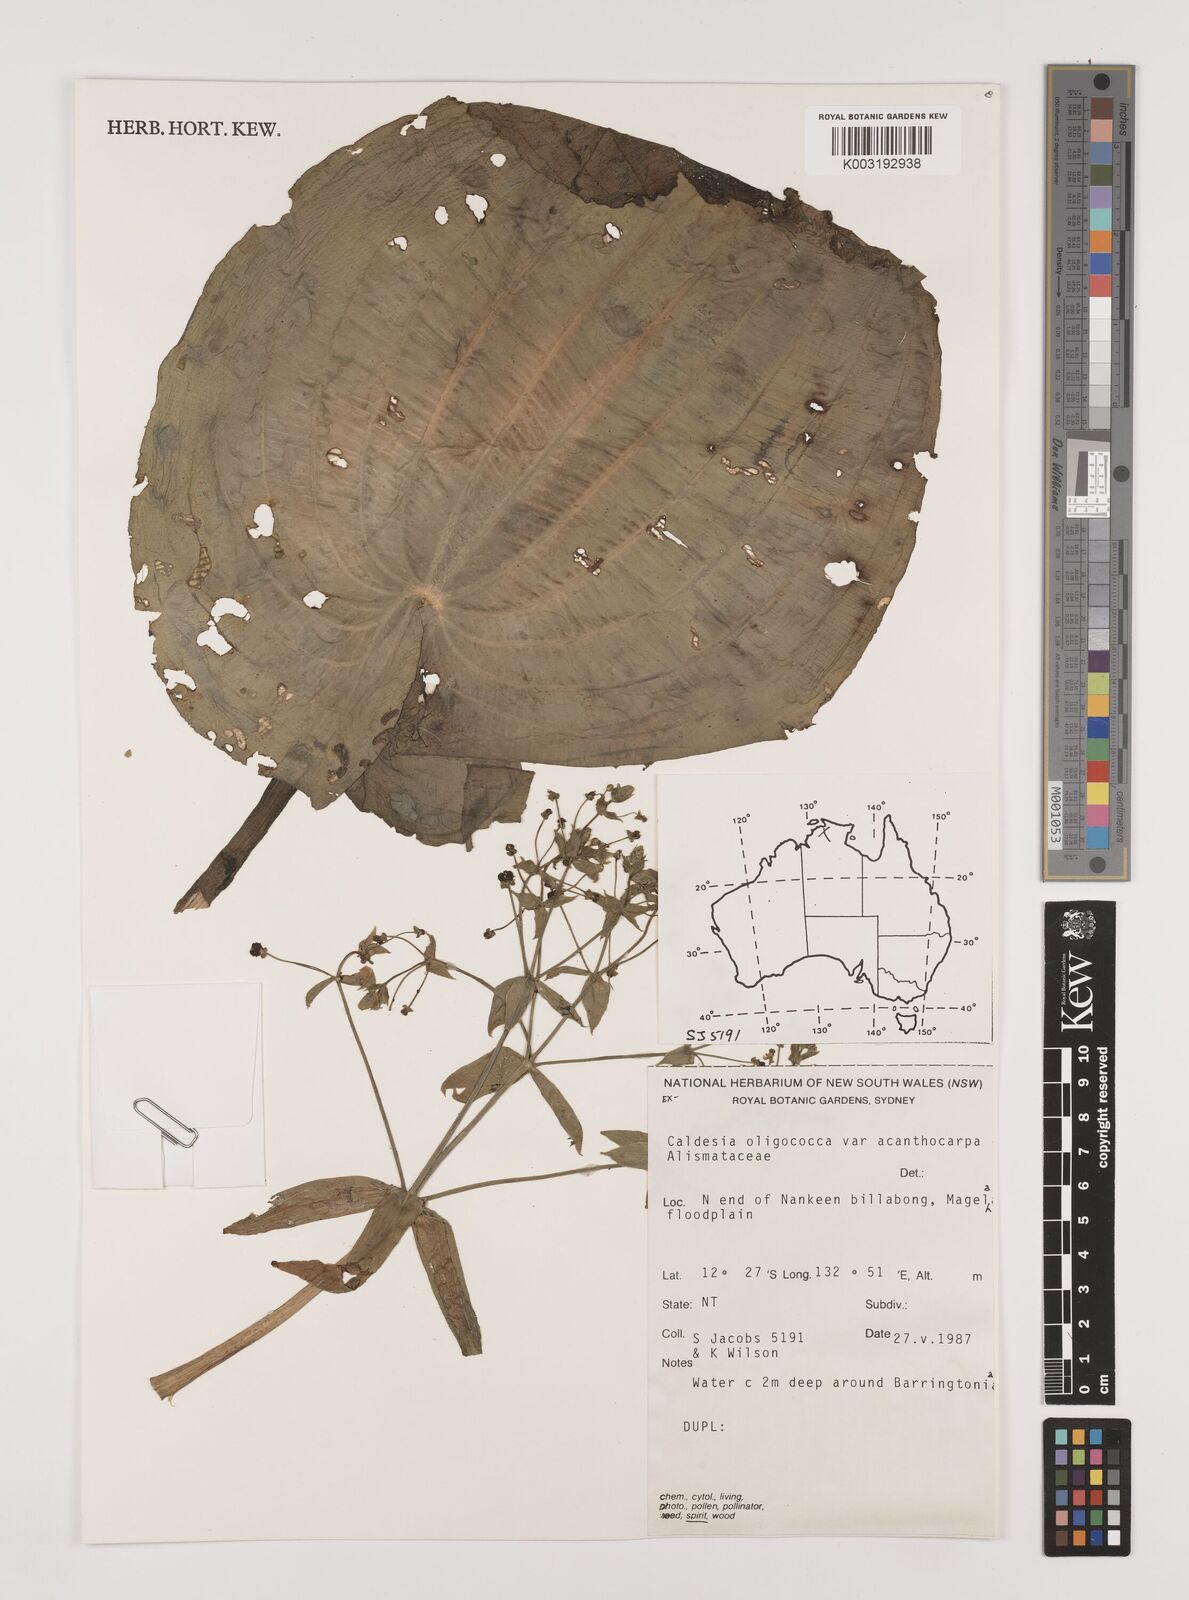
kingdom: Plantae
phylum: Tracheophyta
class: Liliopsida
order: Alismatales
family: Alismataceae
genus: Albidella
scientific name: Albidella oligococca
